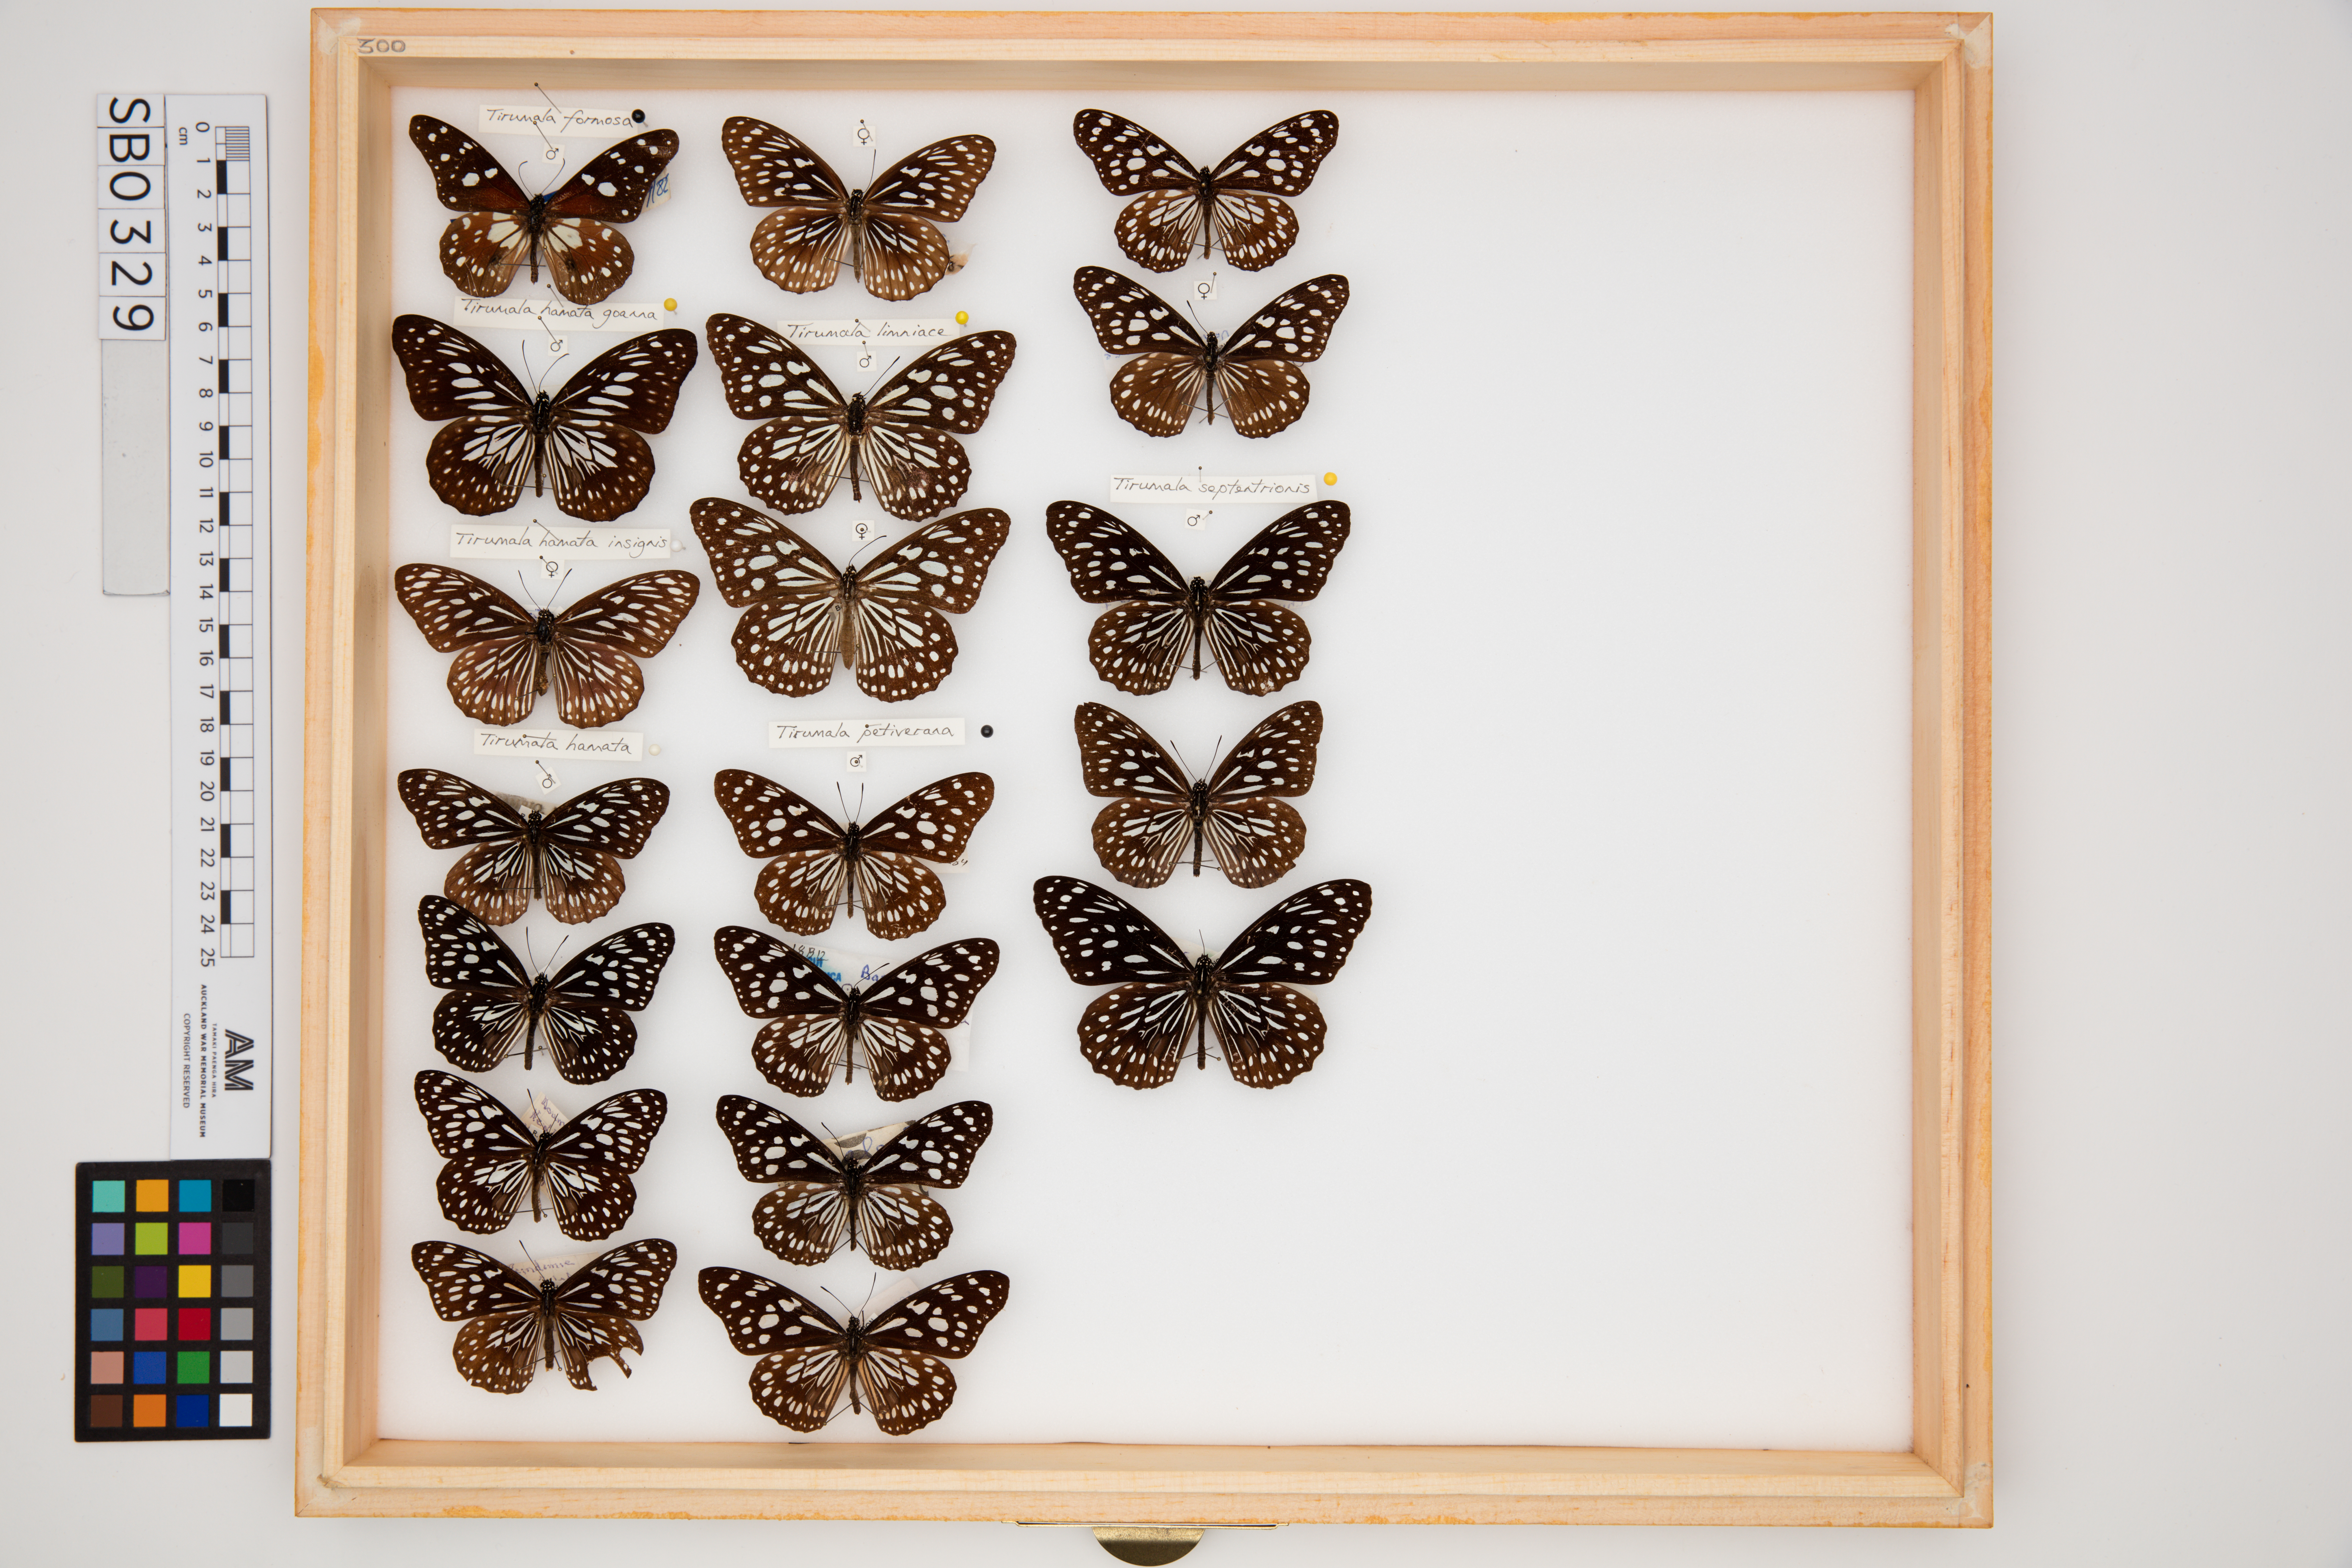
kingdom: Animalia
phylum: Arthropoda
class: Insecta
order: Lepidoptera
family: Nymphalidae
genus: Tirumala
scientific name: Tirumala hamata
